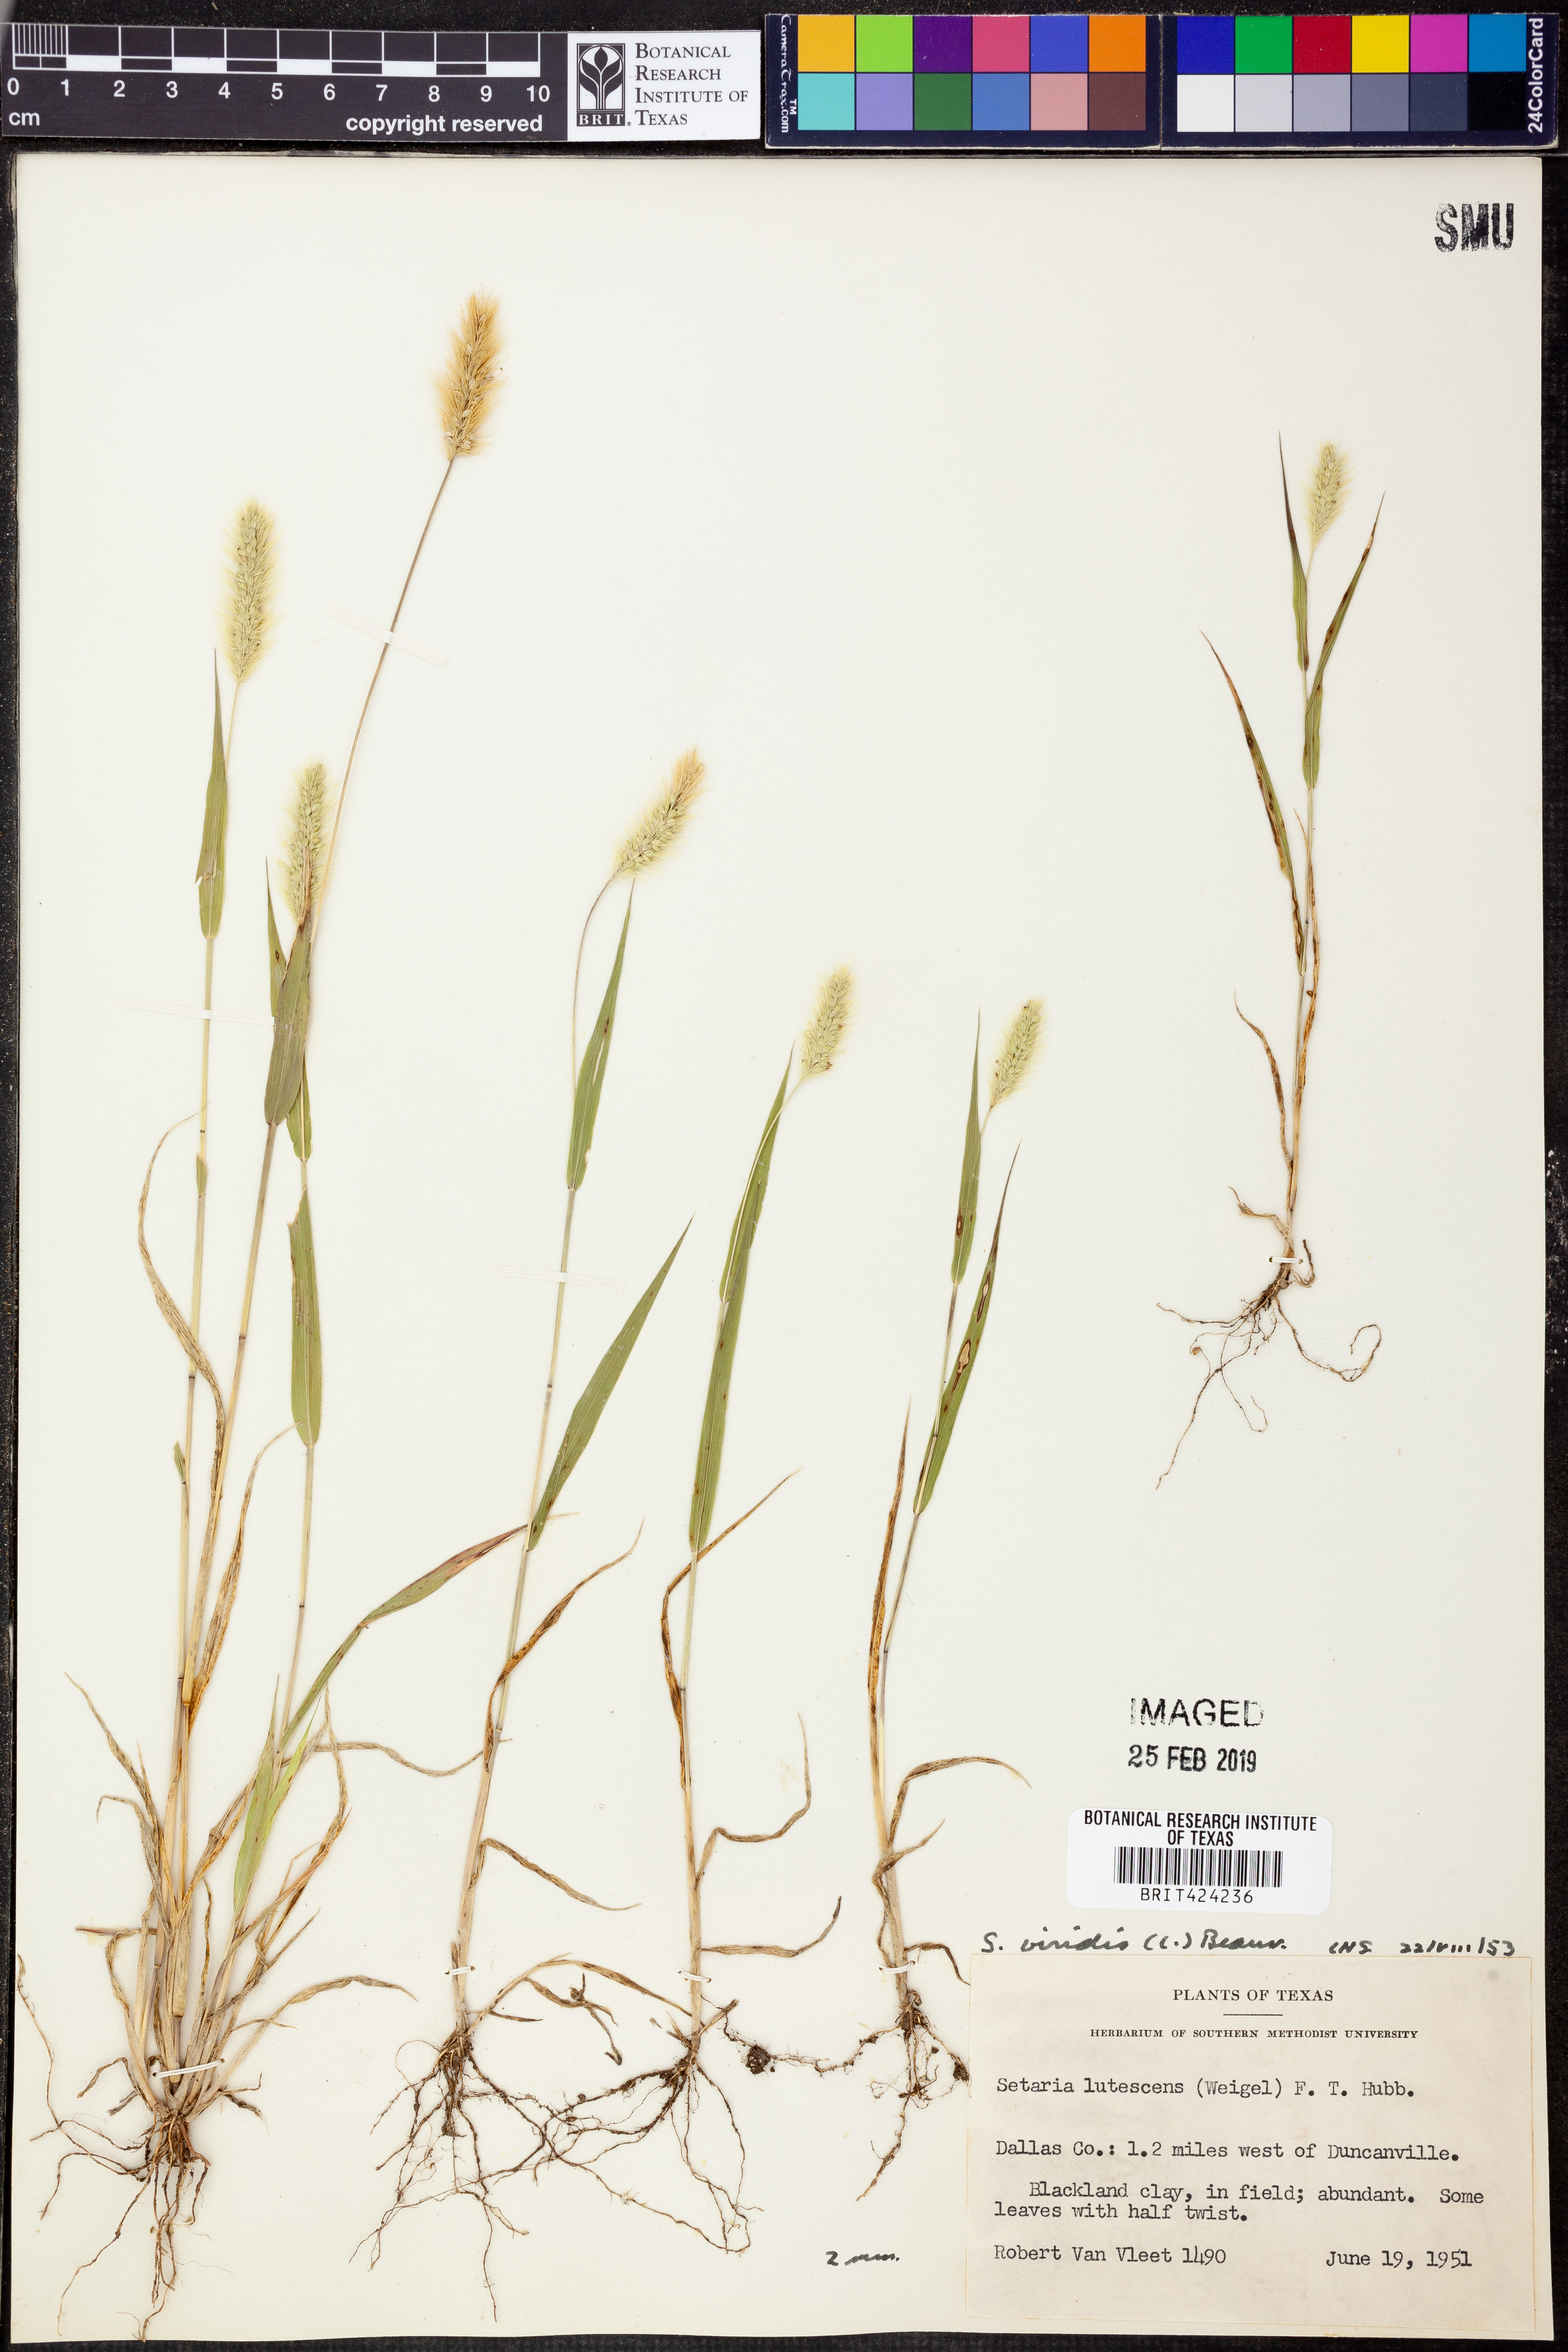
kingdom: Plantae
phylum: Tracheophyta
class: Liliopsida
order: Poales
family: Poaceae
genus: Setaria
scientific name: Setaria viridis
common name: Green bristlegrass
